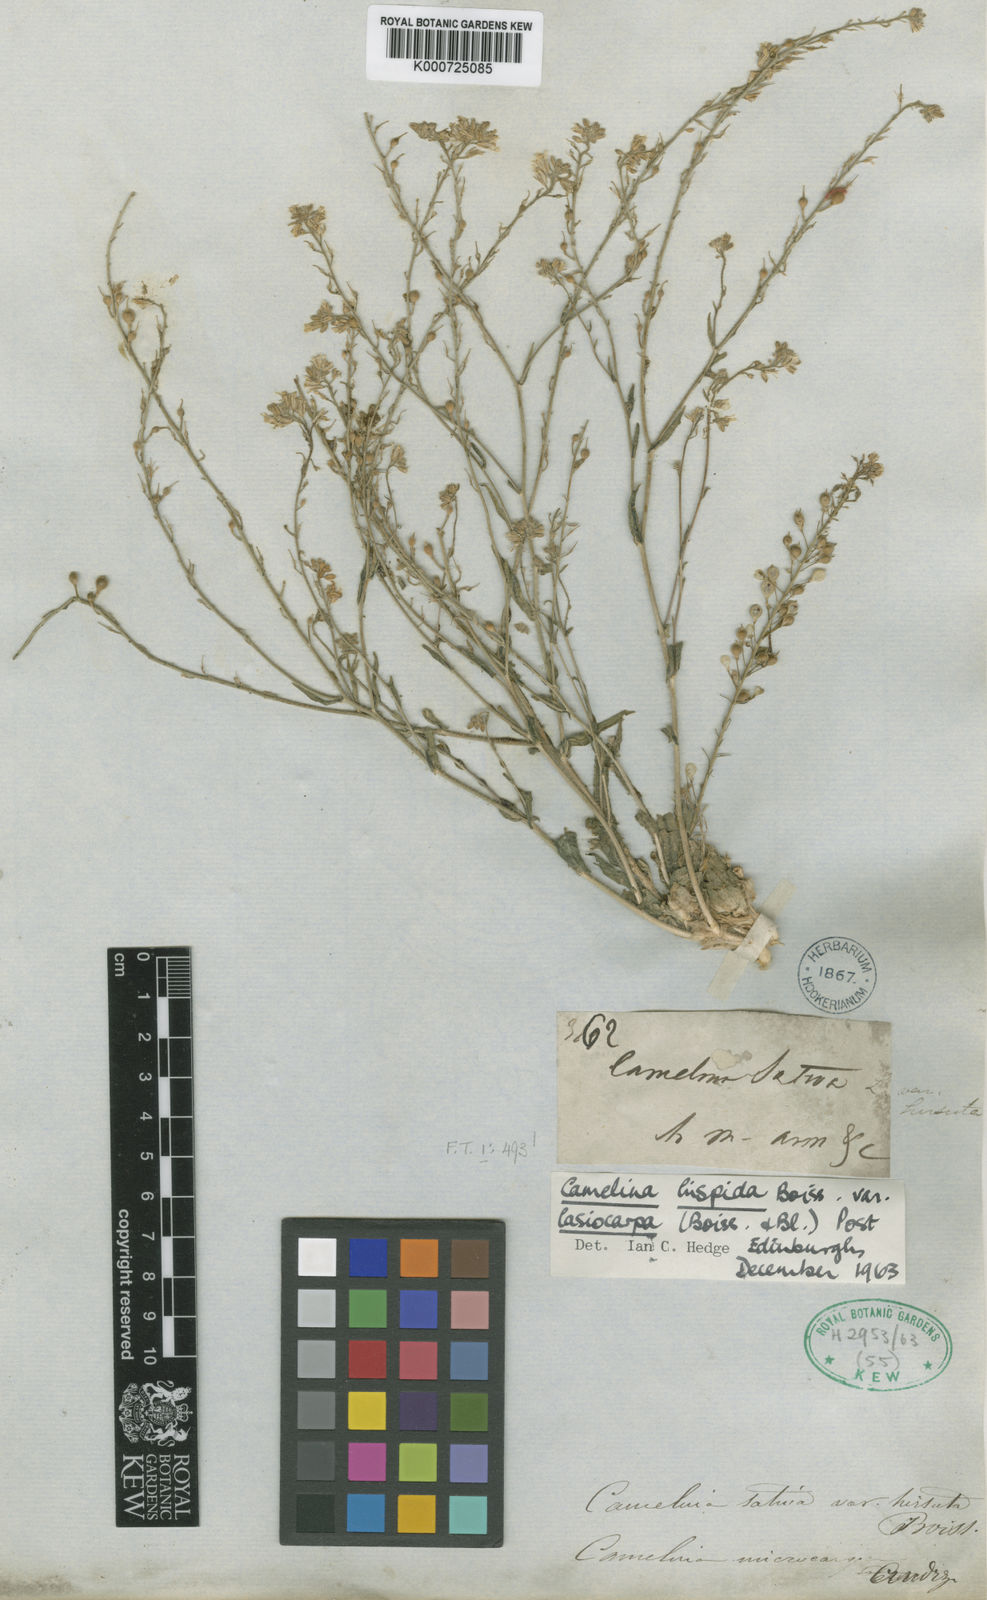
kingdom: Plantae
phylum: Tracheophyta
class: Magnoliopsida
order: Brassicales
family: Brassicaceae
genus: Camelina
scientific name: Camelina hispida
